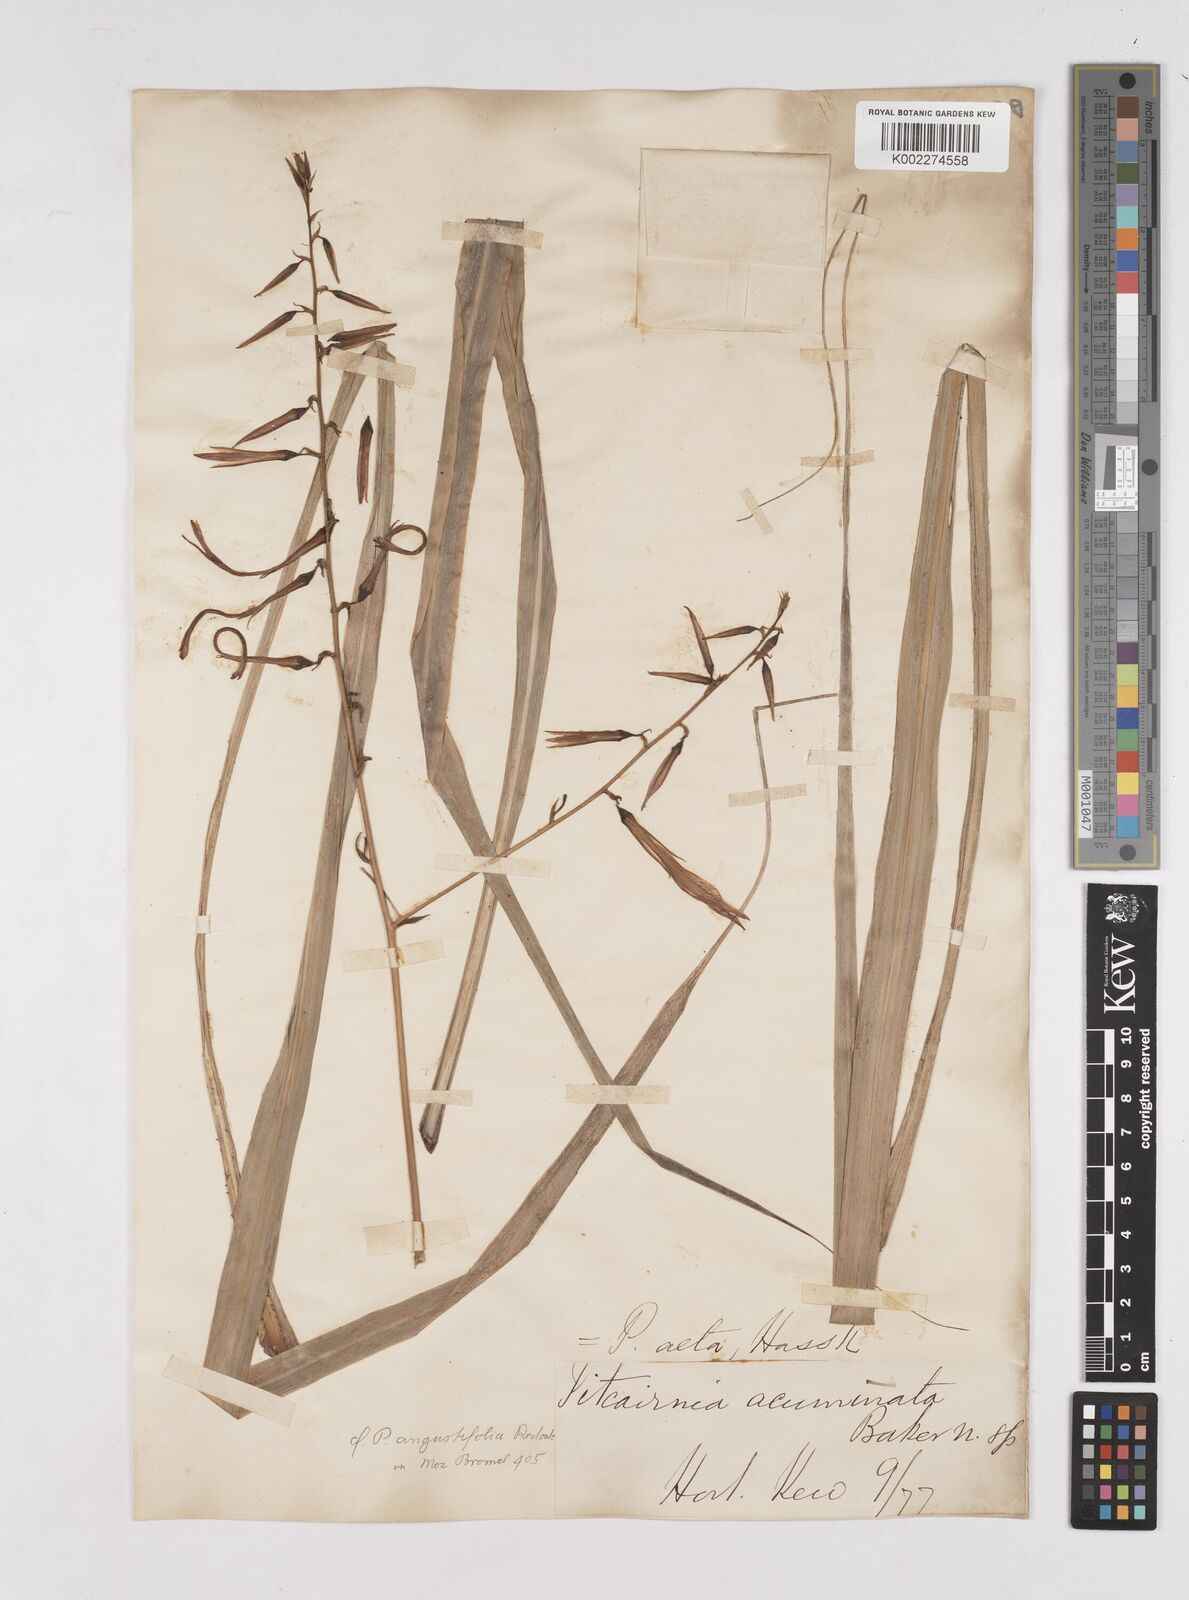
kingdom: Plantae
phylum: Tracheophyta
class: Liliopsida
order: Poales
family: Bromeliaceae
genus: Pitcairnia
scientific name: Pitcairnia angustifolia
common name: Clapper
